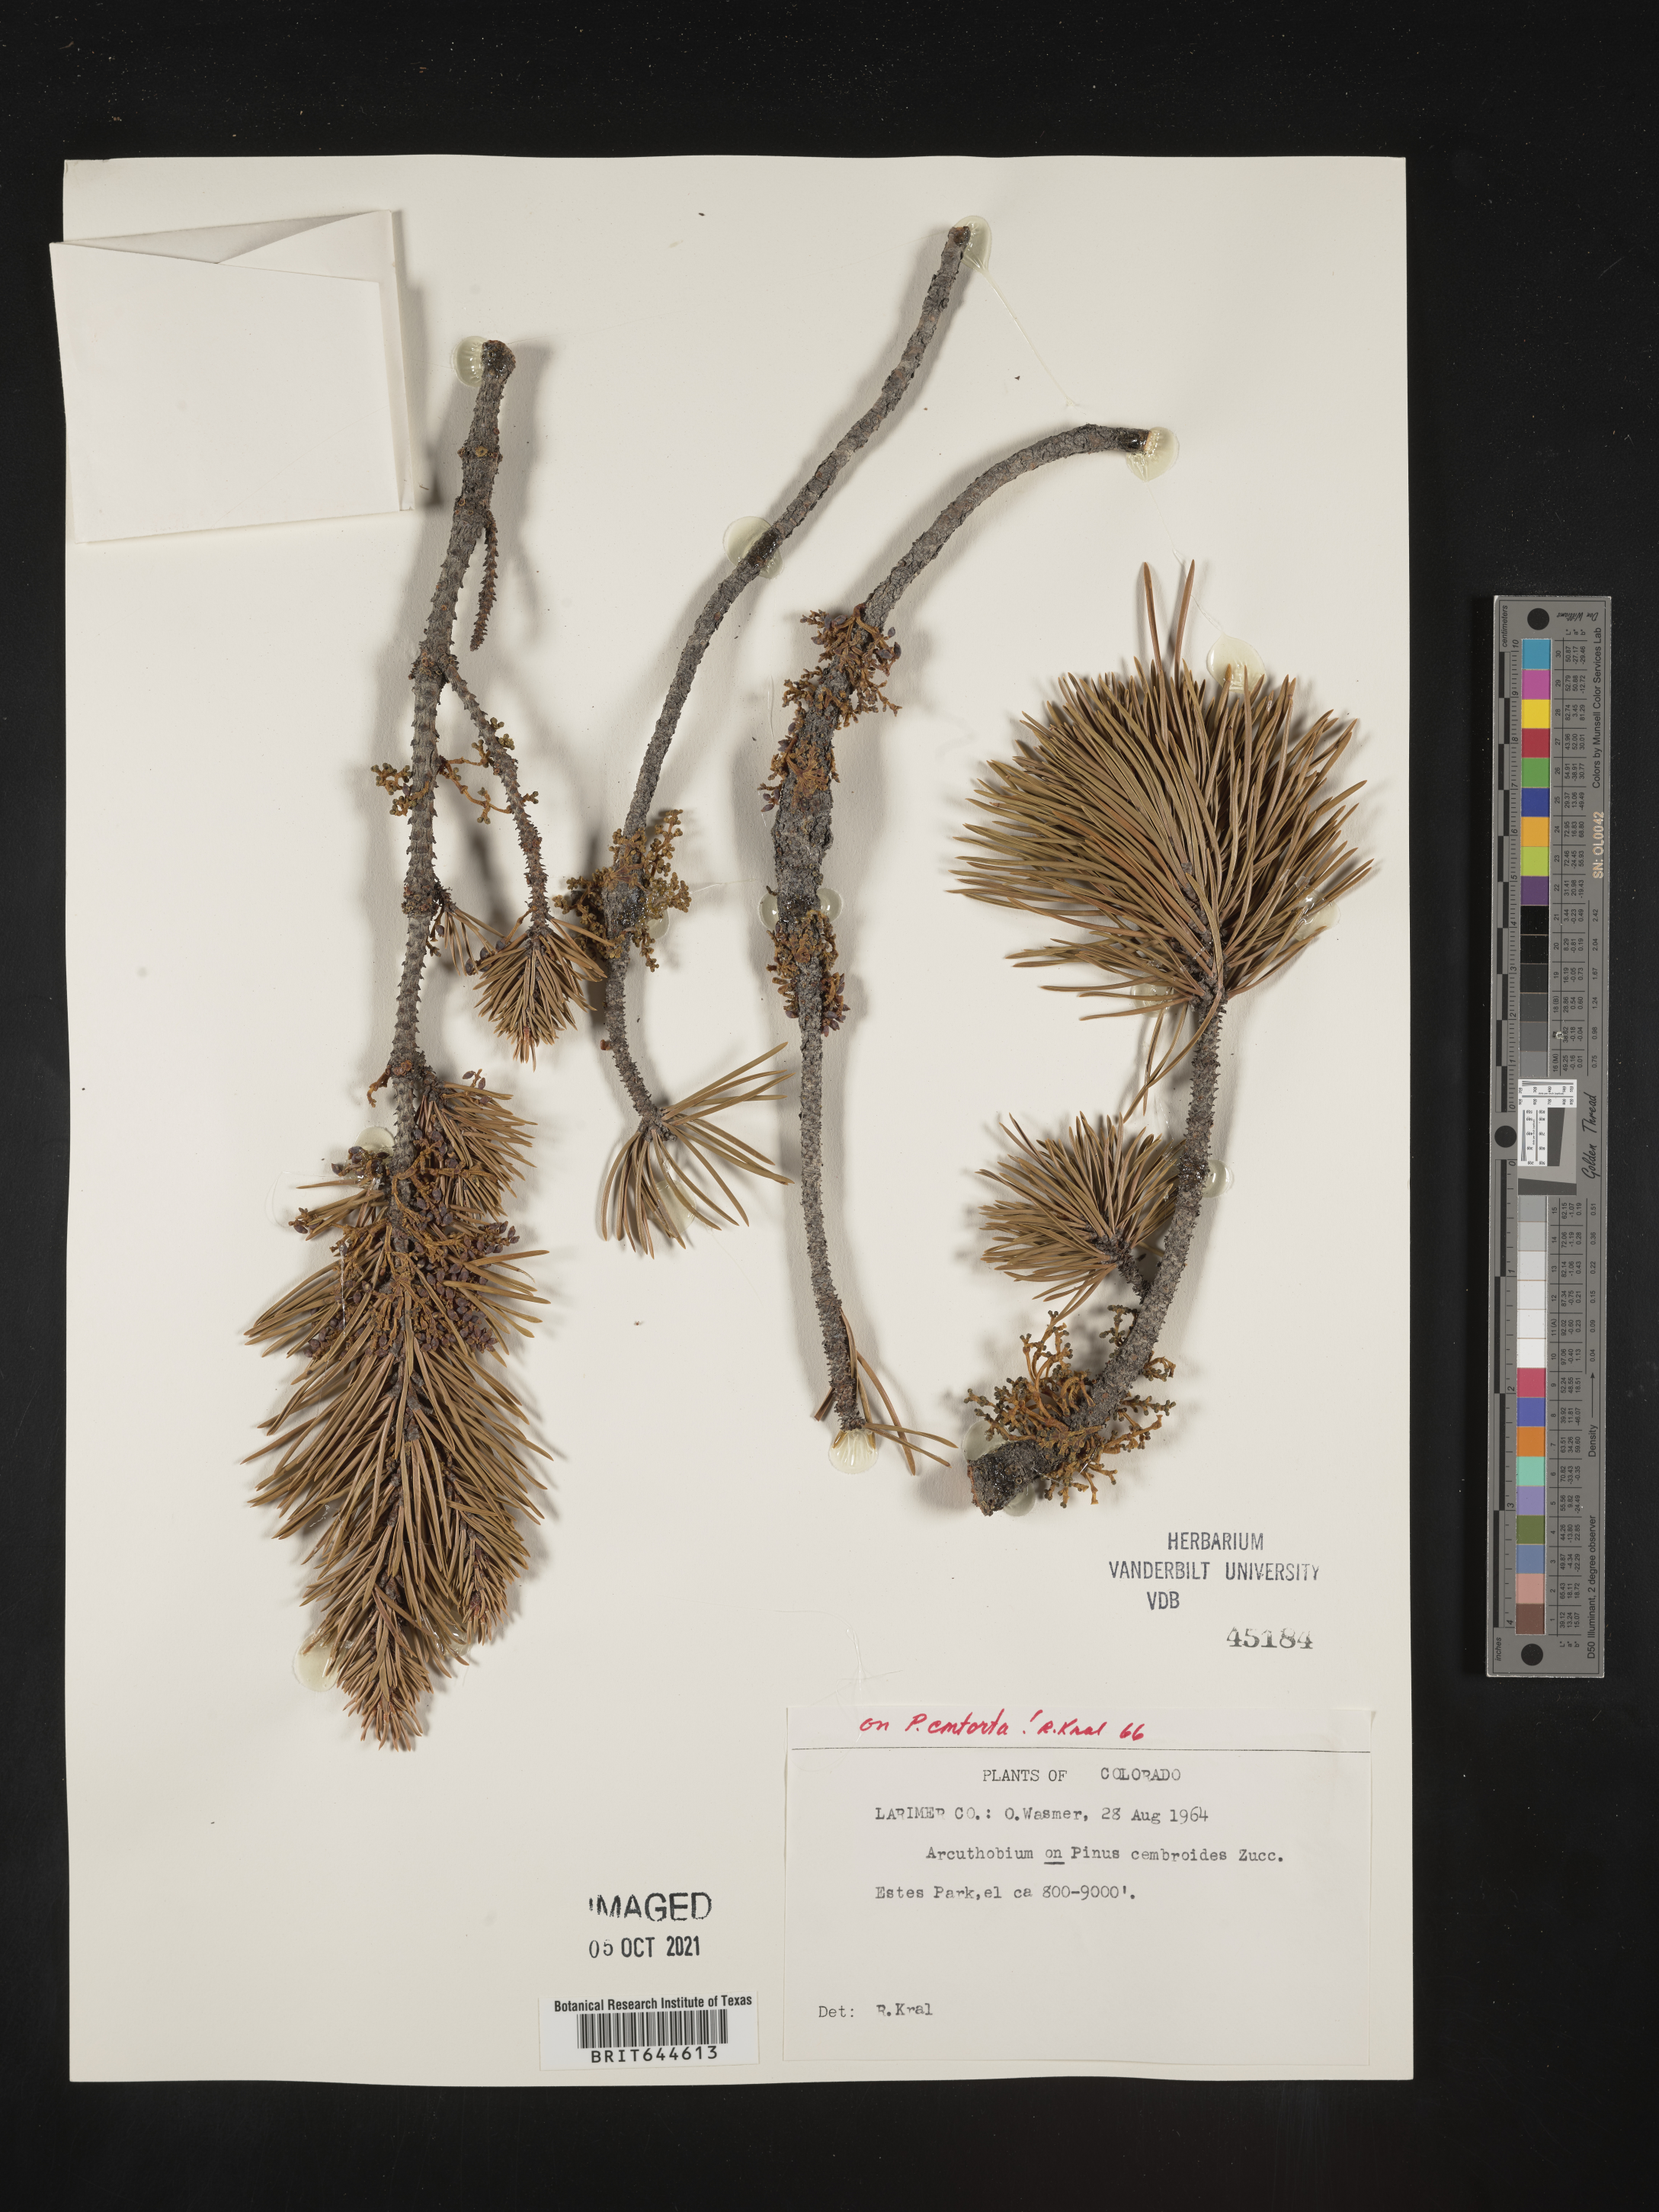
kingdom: Plantae
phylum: Tracheophyta
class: Magnoliopsida
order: Santalales
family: Viscaceae
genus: Arceuthobium
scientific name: Arceuthobium
